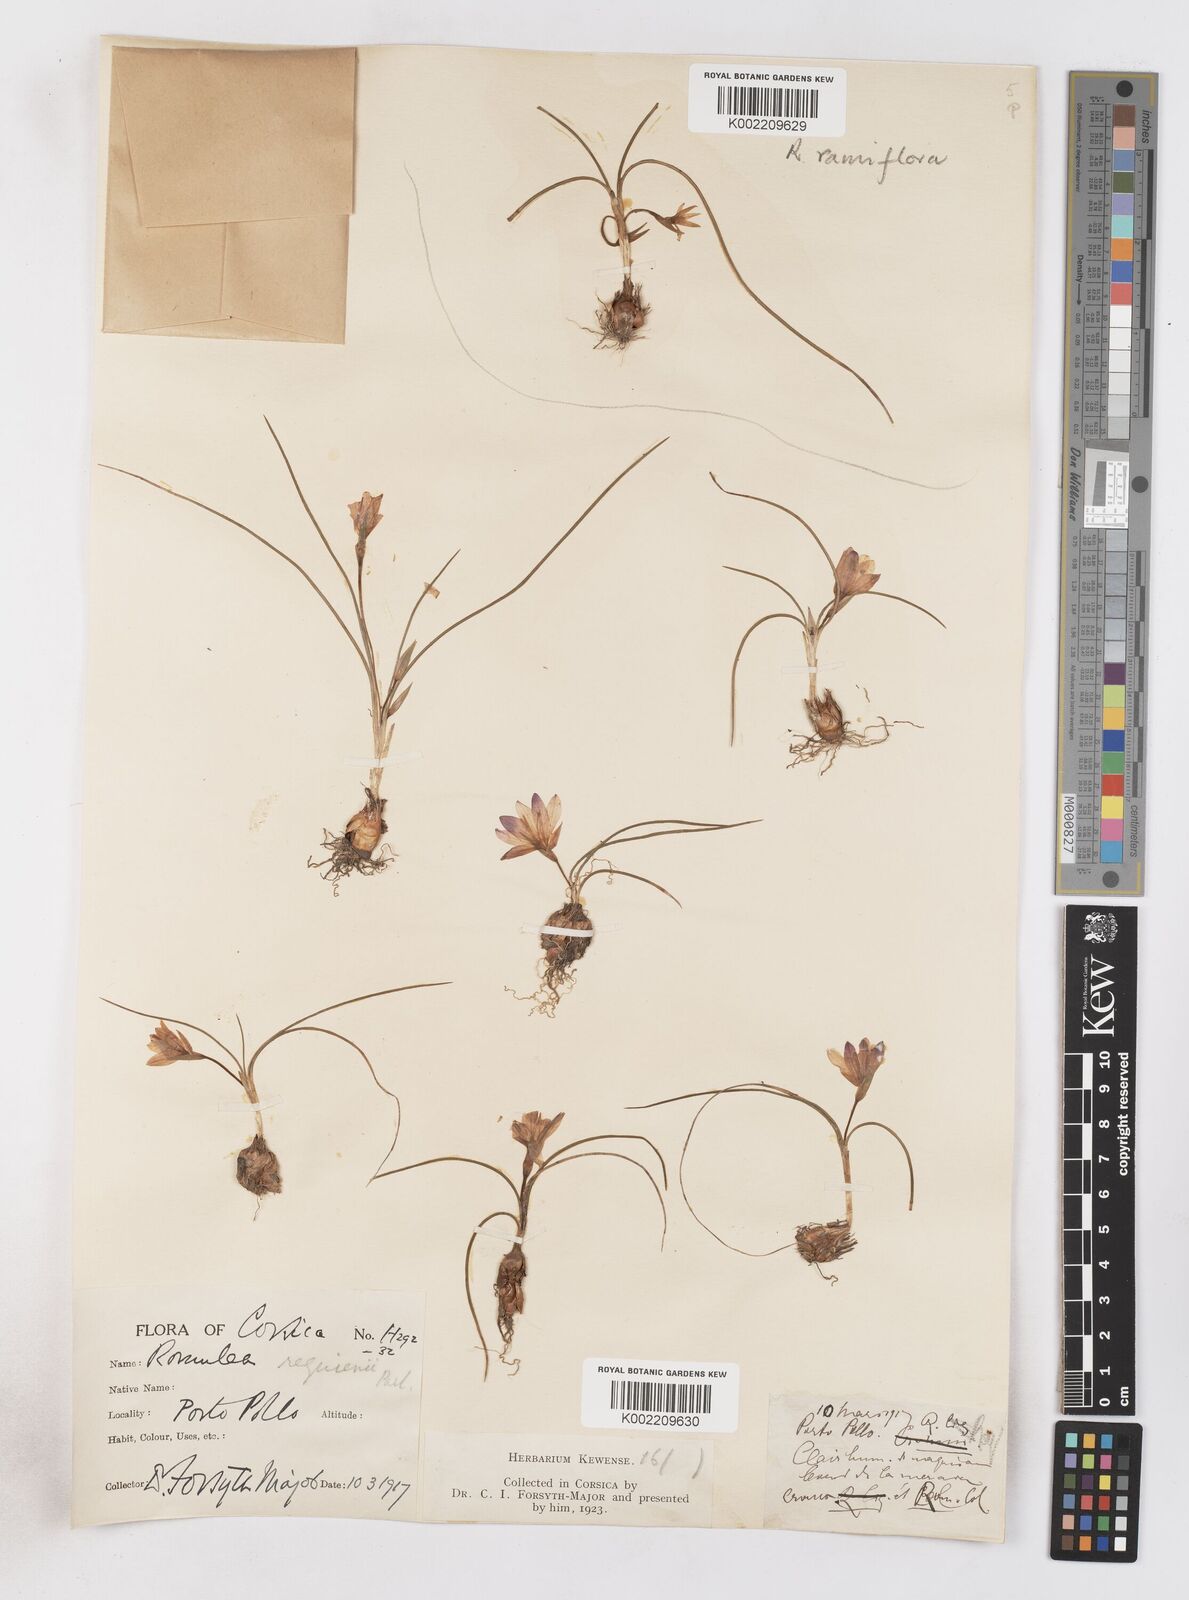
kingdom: Plantae
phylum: Tracheophyta
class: Liliopsida
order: Asparagales
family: Iridaceae
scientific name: Iridaceae
